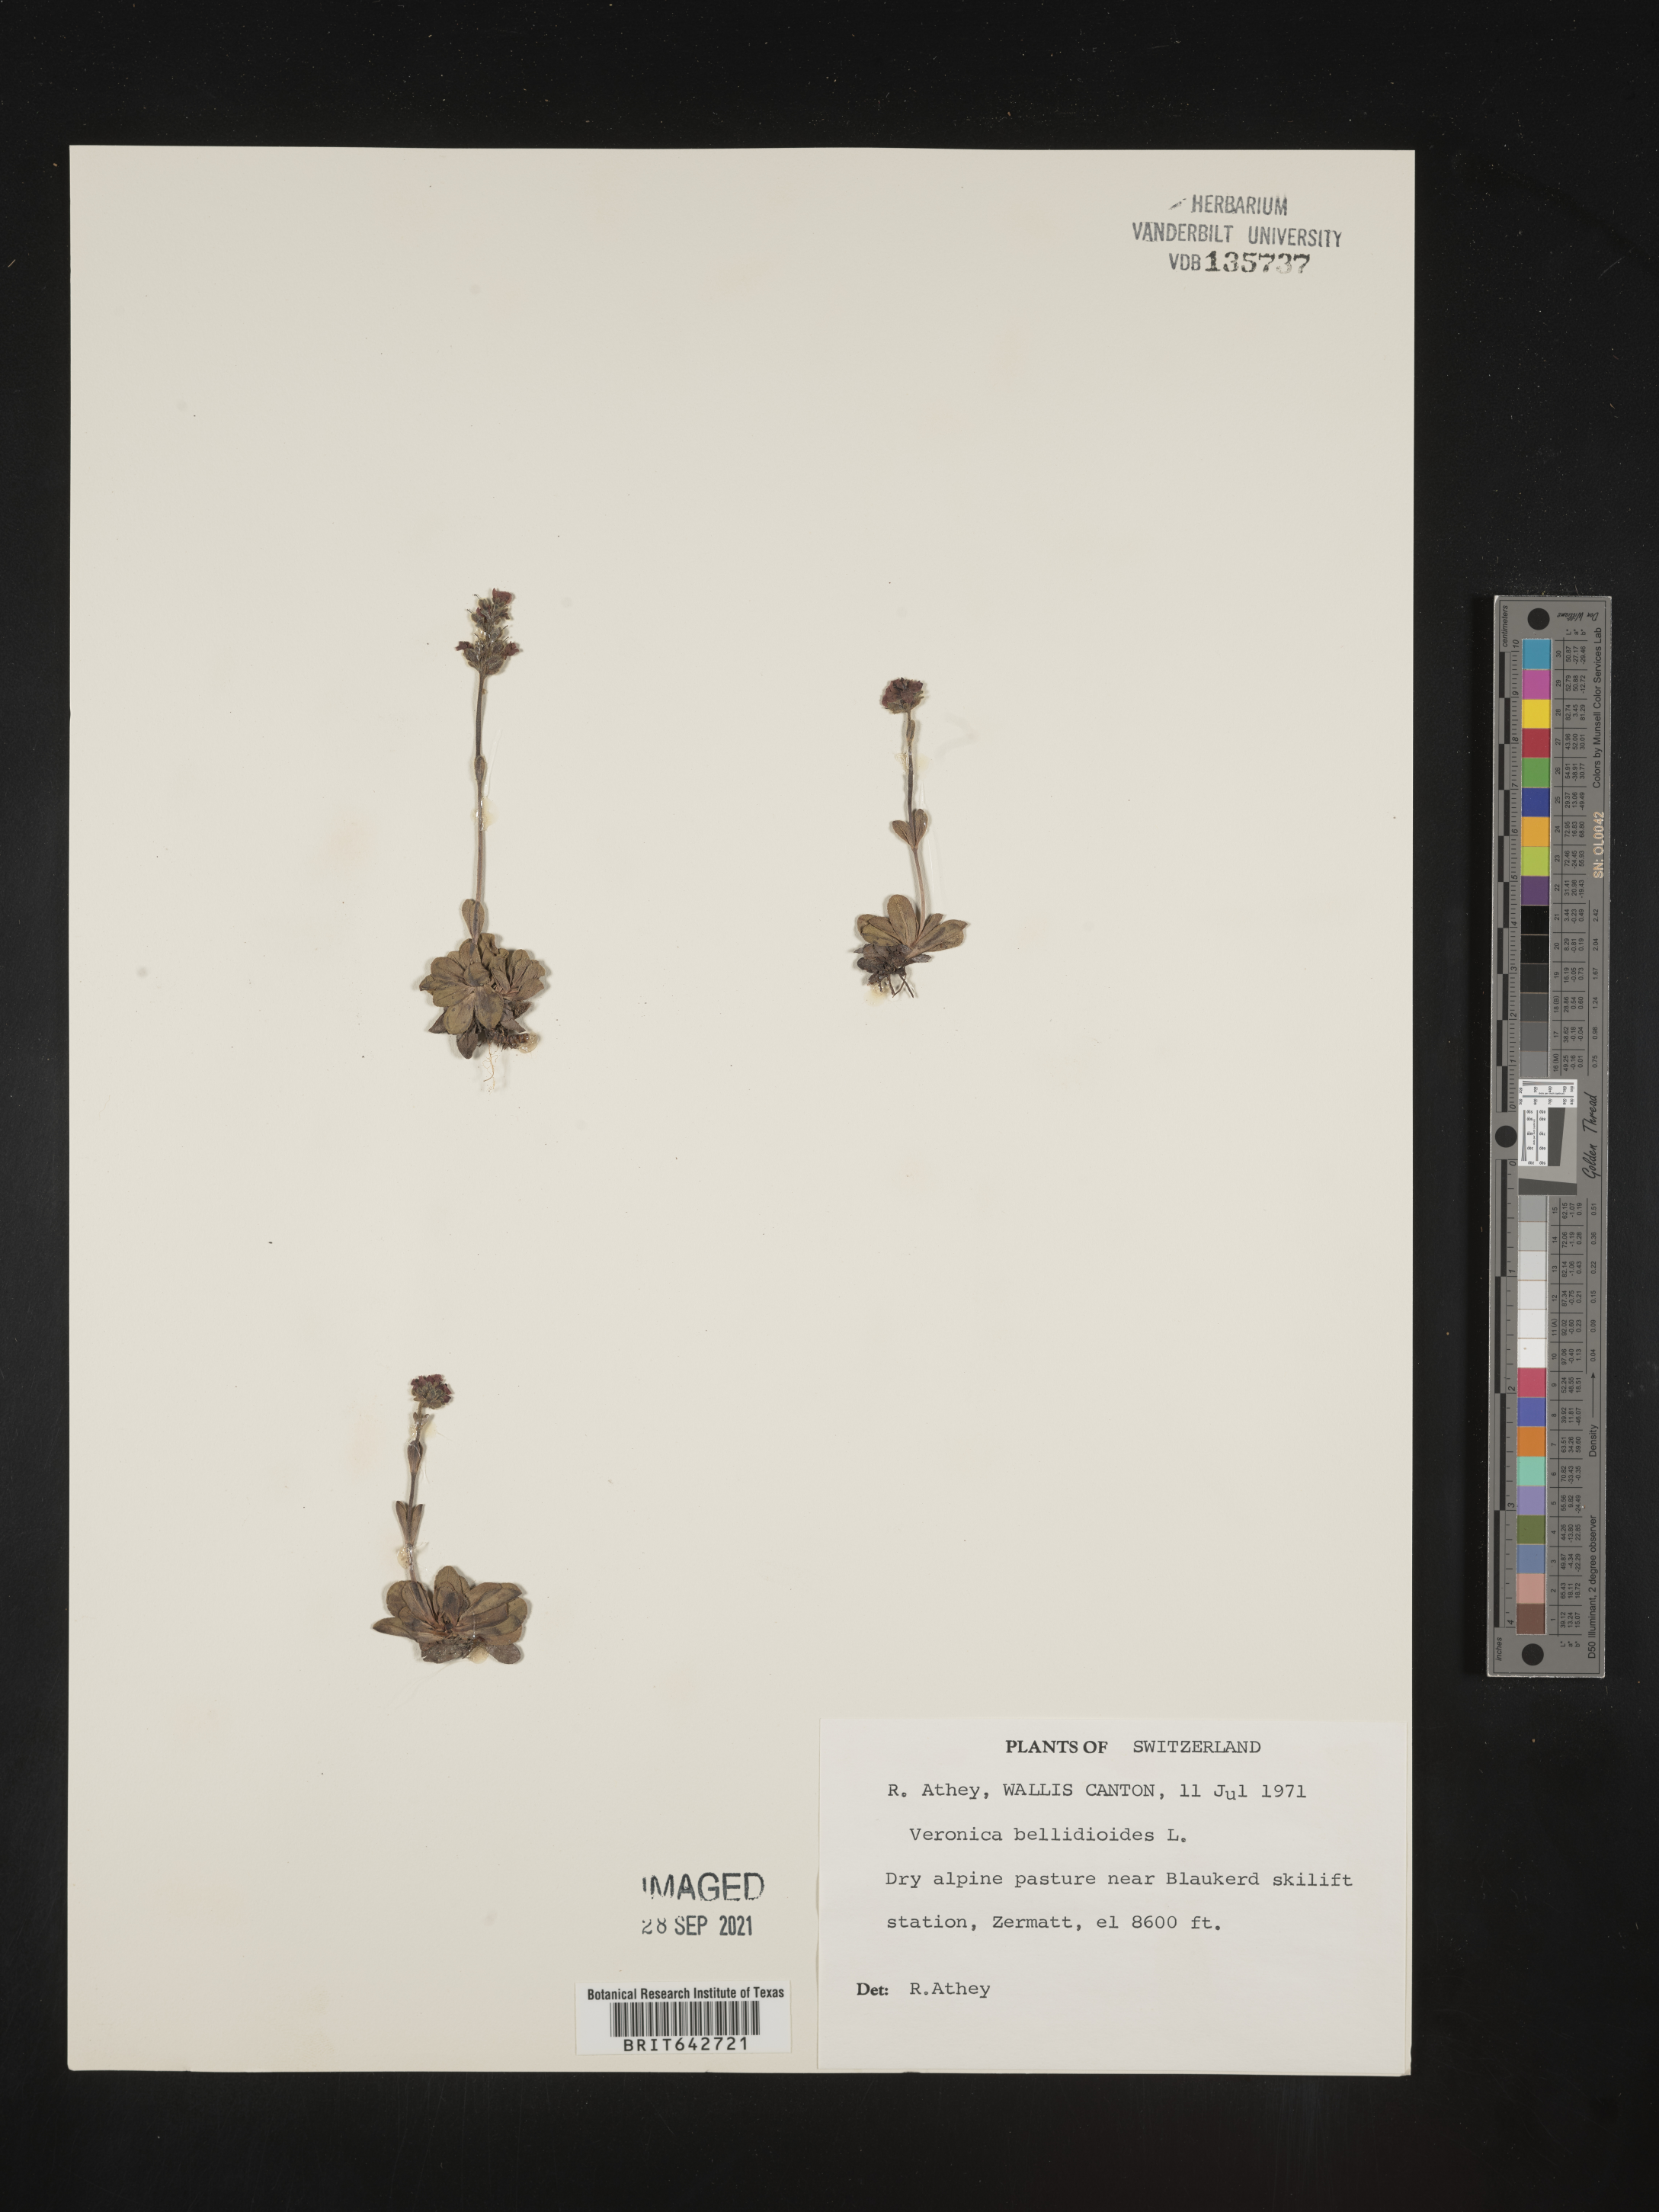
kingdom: Plantae
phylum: Tracheophyta
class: Magnoliopsida
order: Lamiales
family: Plantaginaceae
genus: Veronica
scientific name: Veronica
